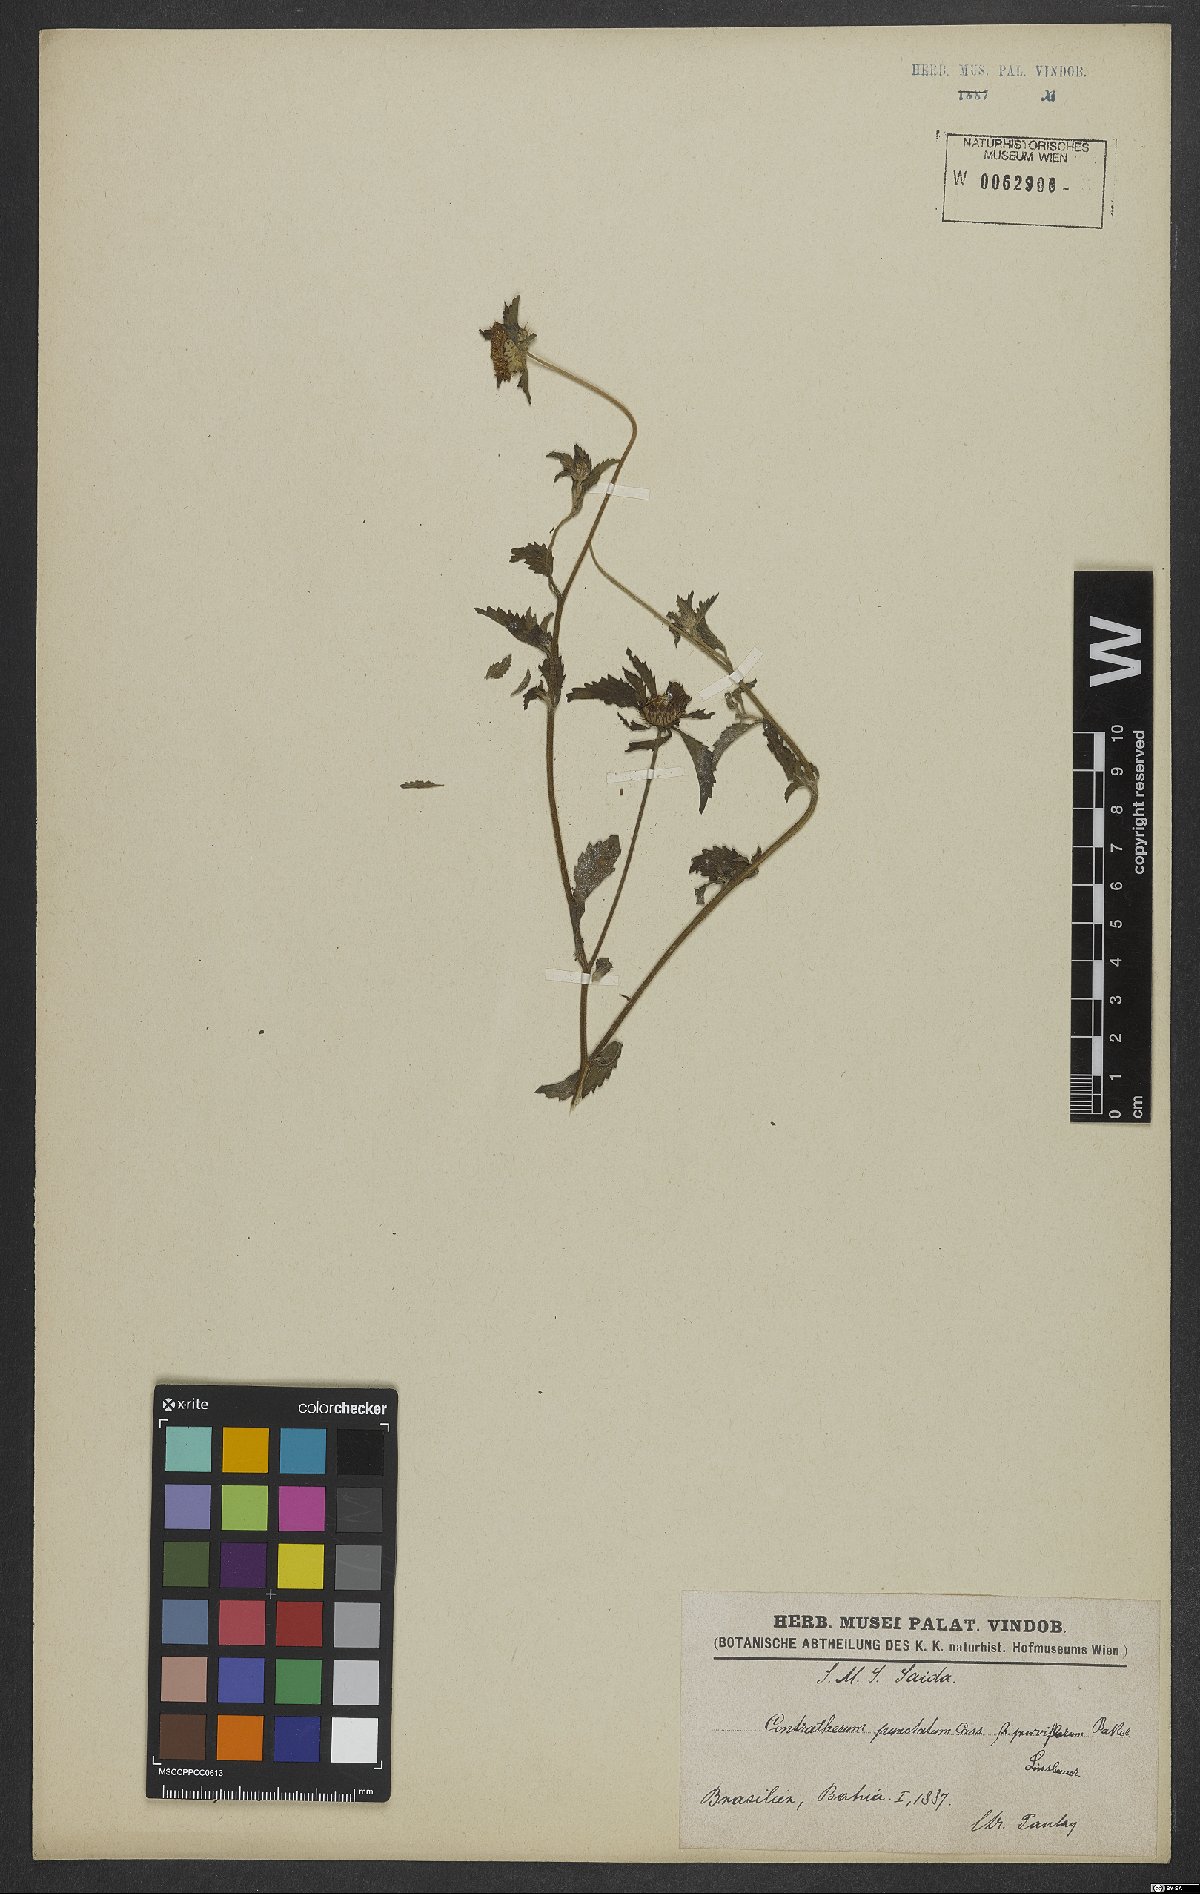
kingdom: Plantae
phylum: Tracheophyta
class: Magnoliopsida
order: Asterales
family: Asteraceae
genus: Centratherum
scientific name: Centratherum punctatum
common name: Larkdaisy
